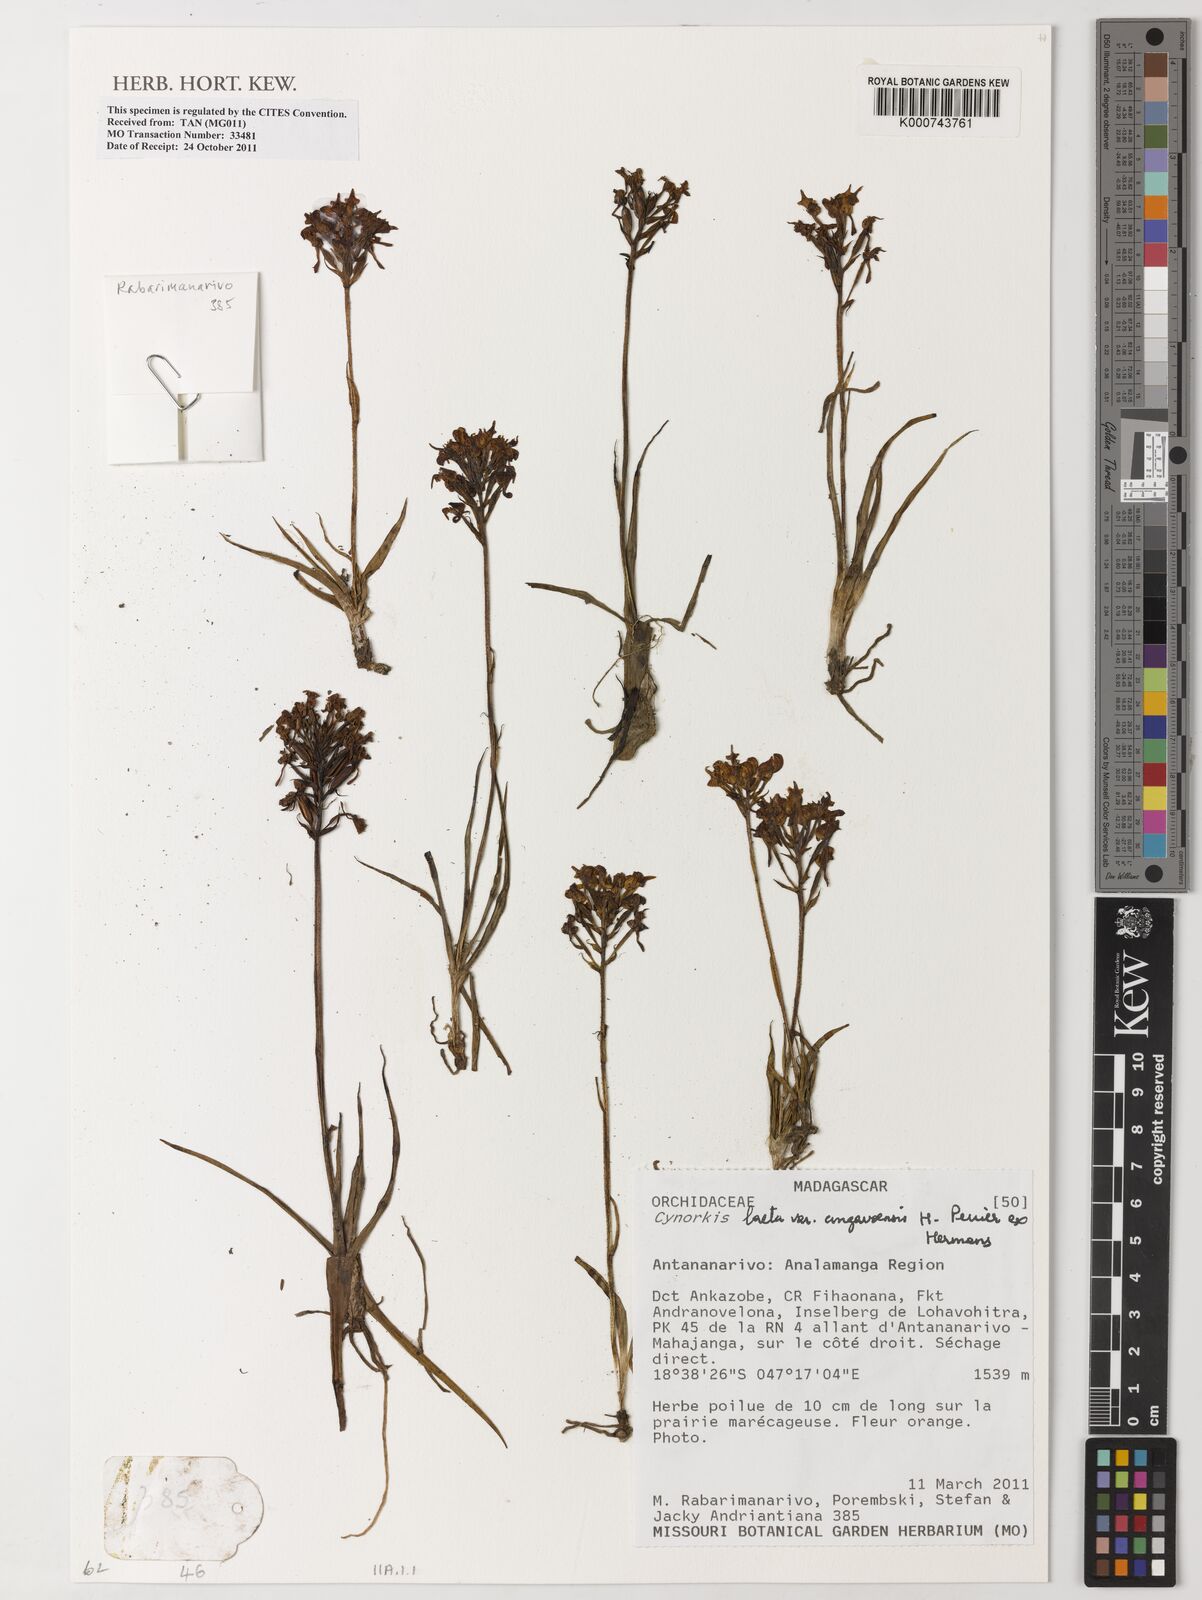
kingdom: Plantae
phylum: Tracheophyta
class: Liliopsida
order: Asparagales
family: Orchidaceae
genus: Cynorkis
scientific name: Cynorkis cinnabarina
